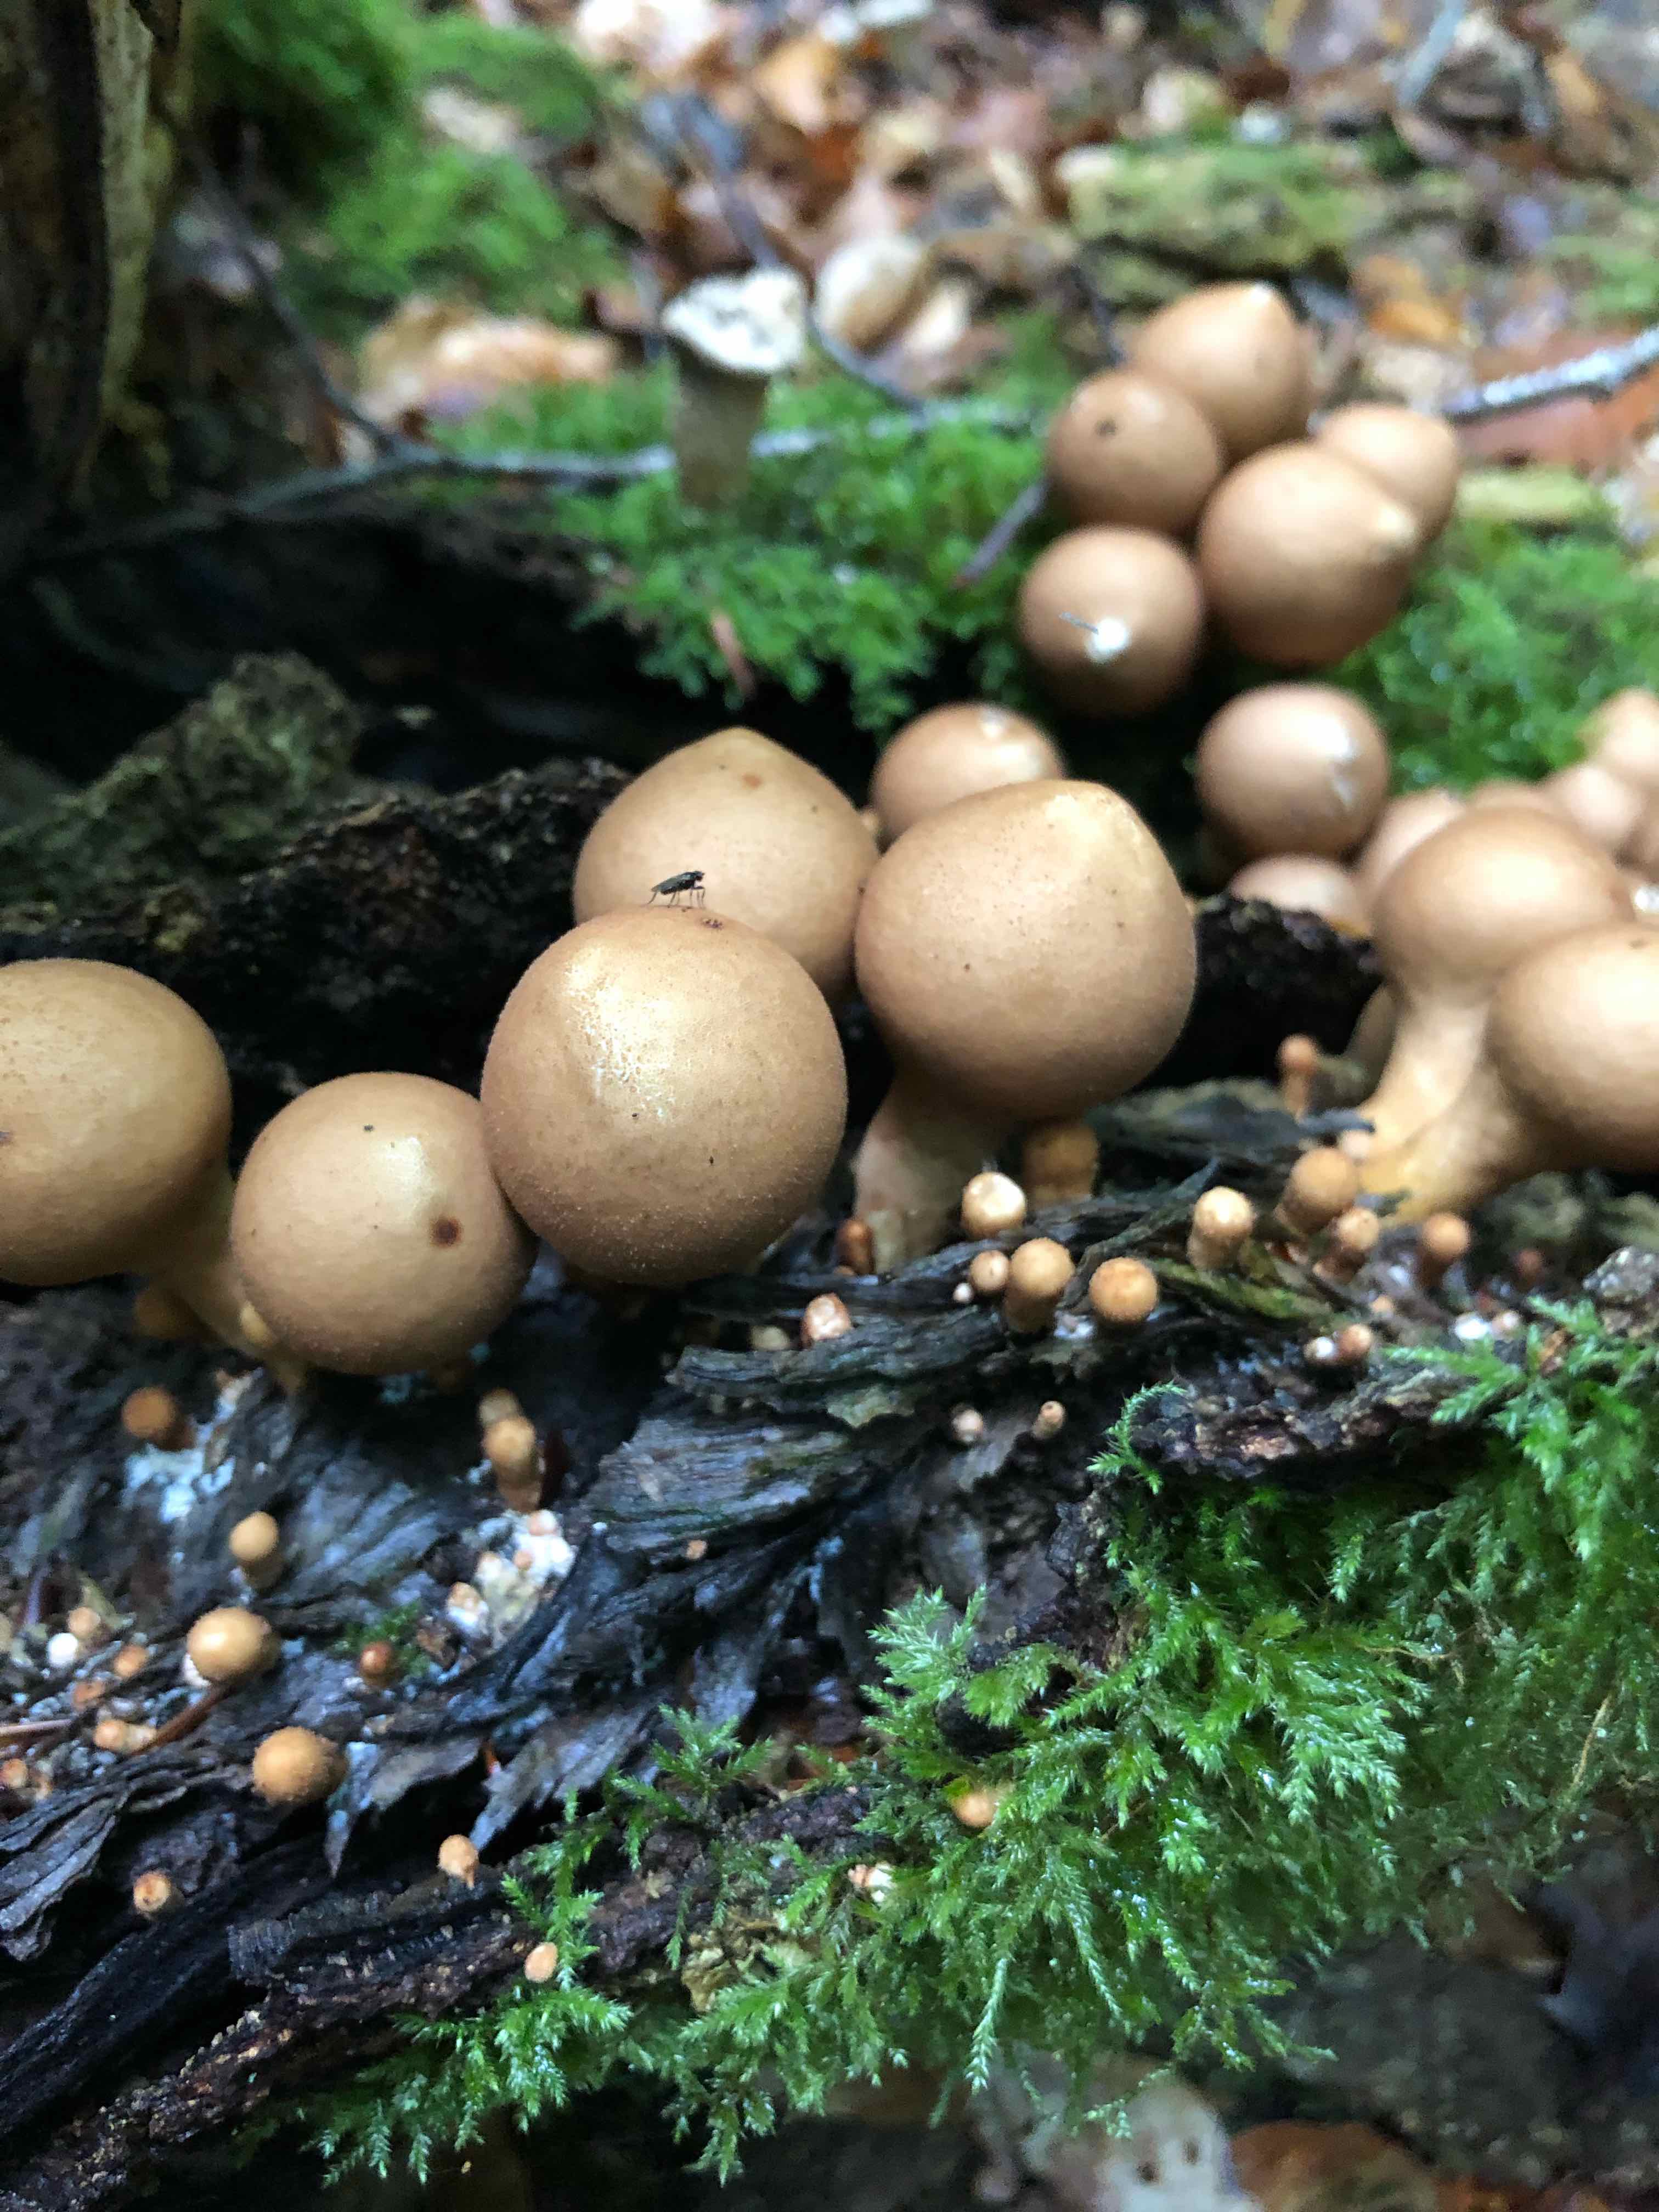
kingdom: Fungi
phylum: Basidiomycota
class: Agaricomycetes
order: Agaricales
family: Lycoperdaceae
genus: Apioperdon
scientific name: Apioperdon pyriforme
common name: pære-støvbold
